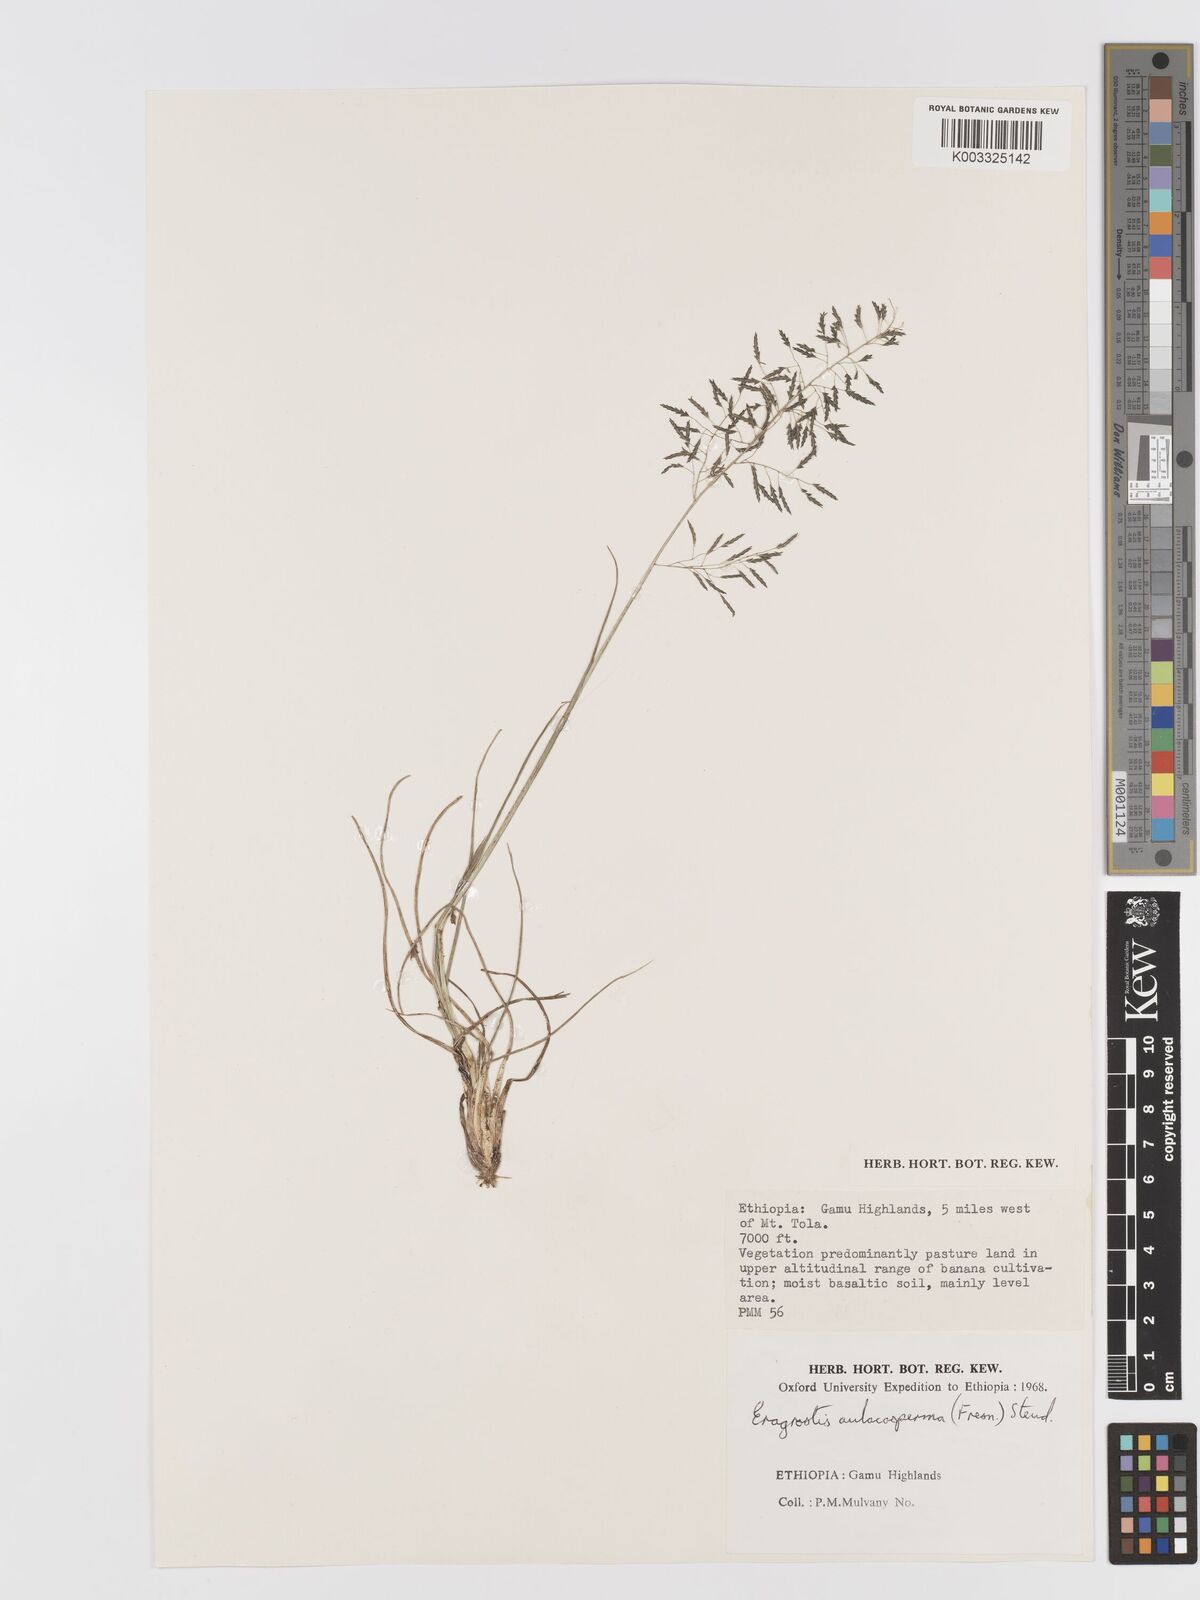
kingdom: Plantae
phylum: Tracheophyta
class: Liliopsida
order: Poales
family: Poaceae
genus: Eragrostis
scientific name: Eragrostis tenuifolia
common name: Elastic grass
